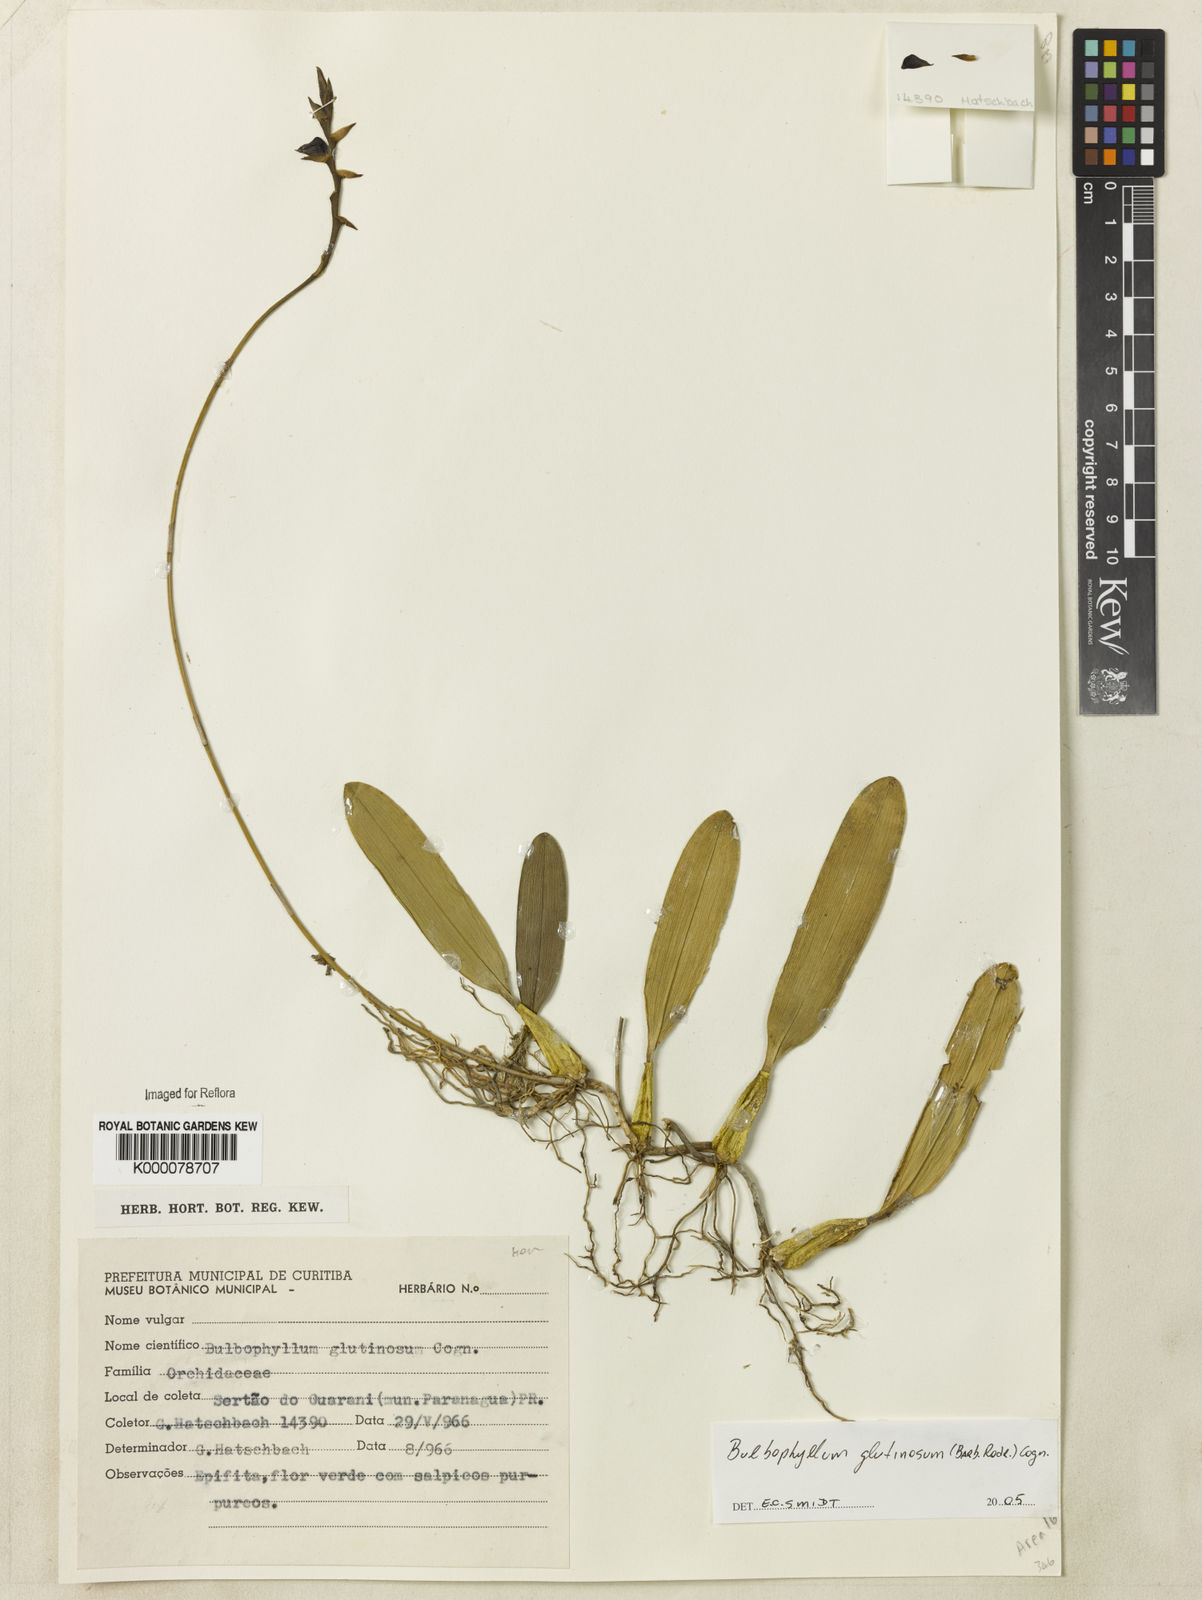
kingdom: Plantae
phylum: Tracheophyta
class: Liliopsida
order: Asparagales
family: Orchidaceae
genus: Bulbophyllum
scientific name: Bulbophyllum glutinosum
